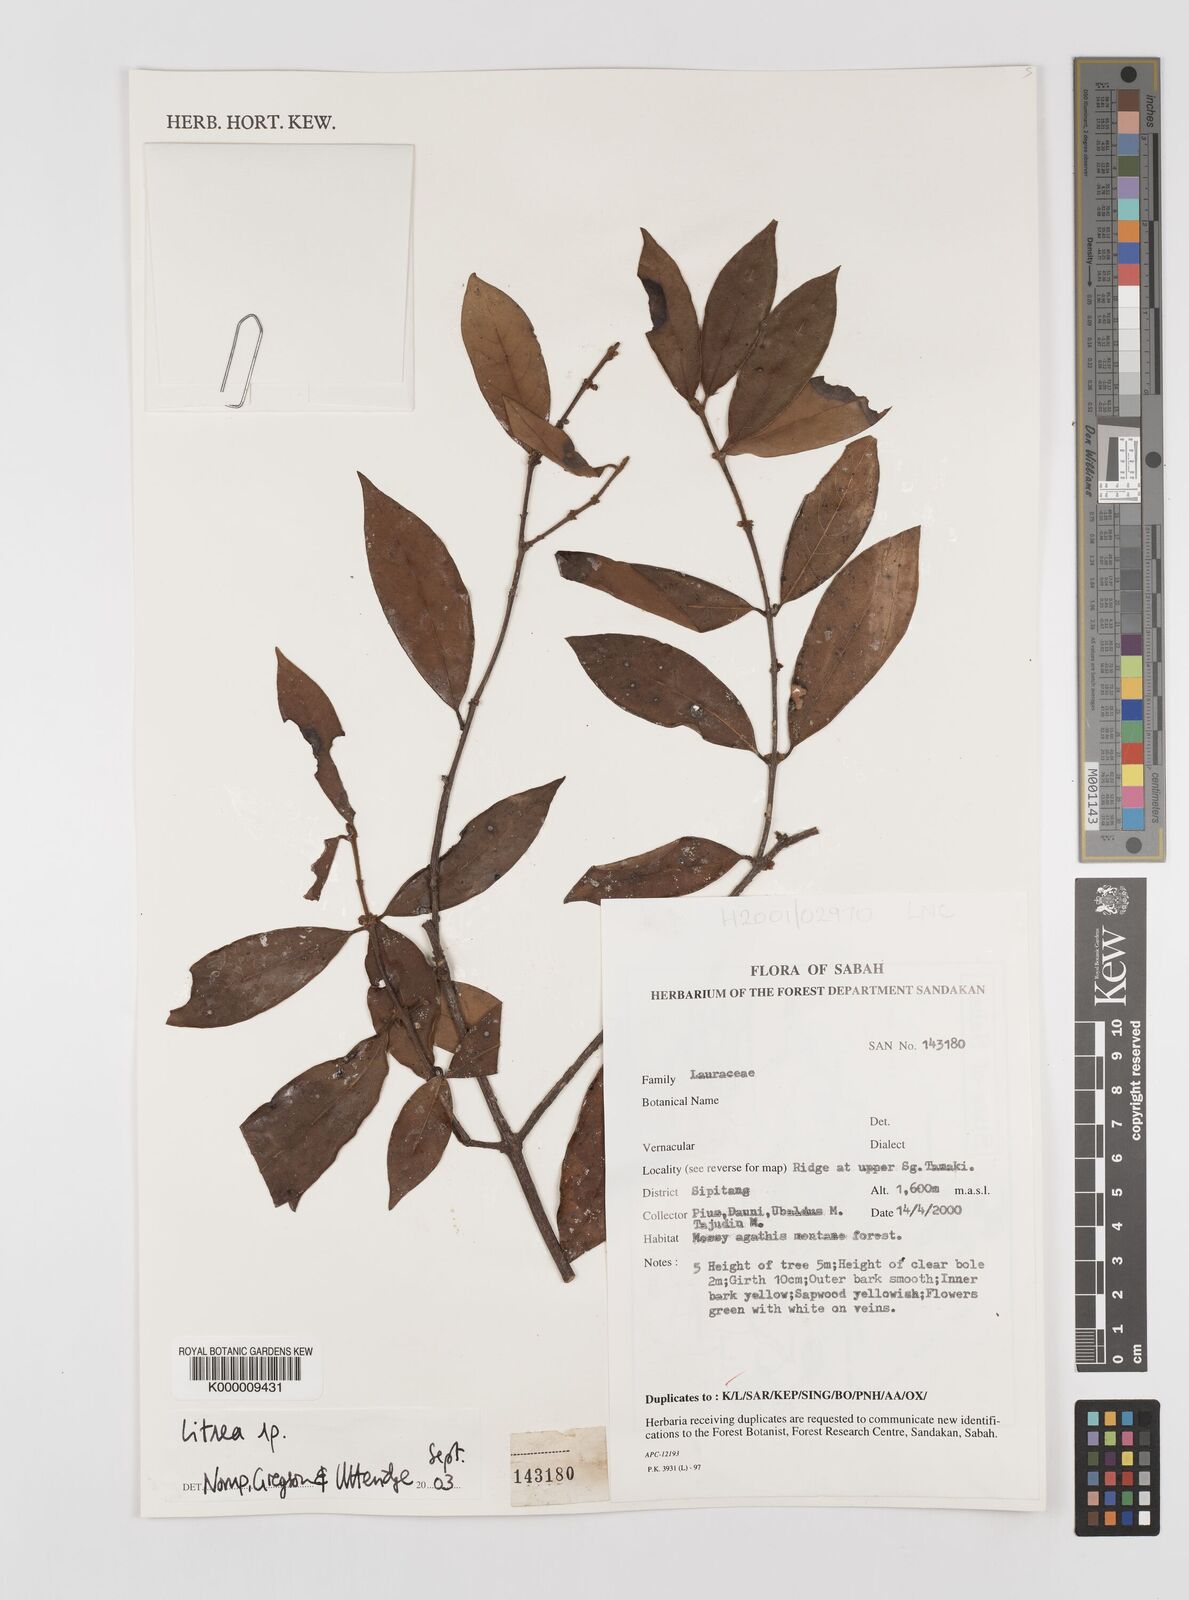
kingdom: Plantae
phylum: Tracheophyta
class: Magnoliopsida
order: Laurales
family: Lauraceae
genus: Litsea
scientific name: Litsea
